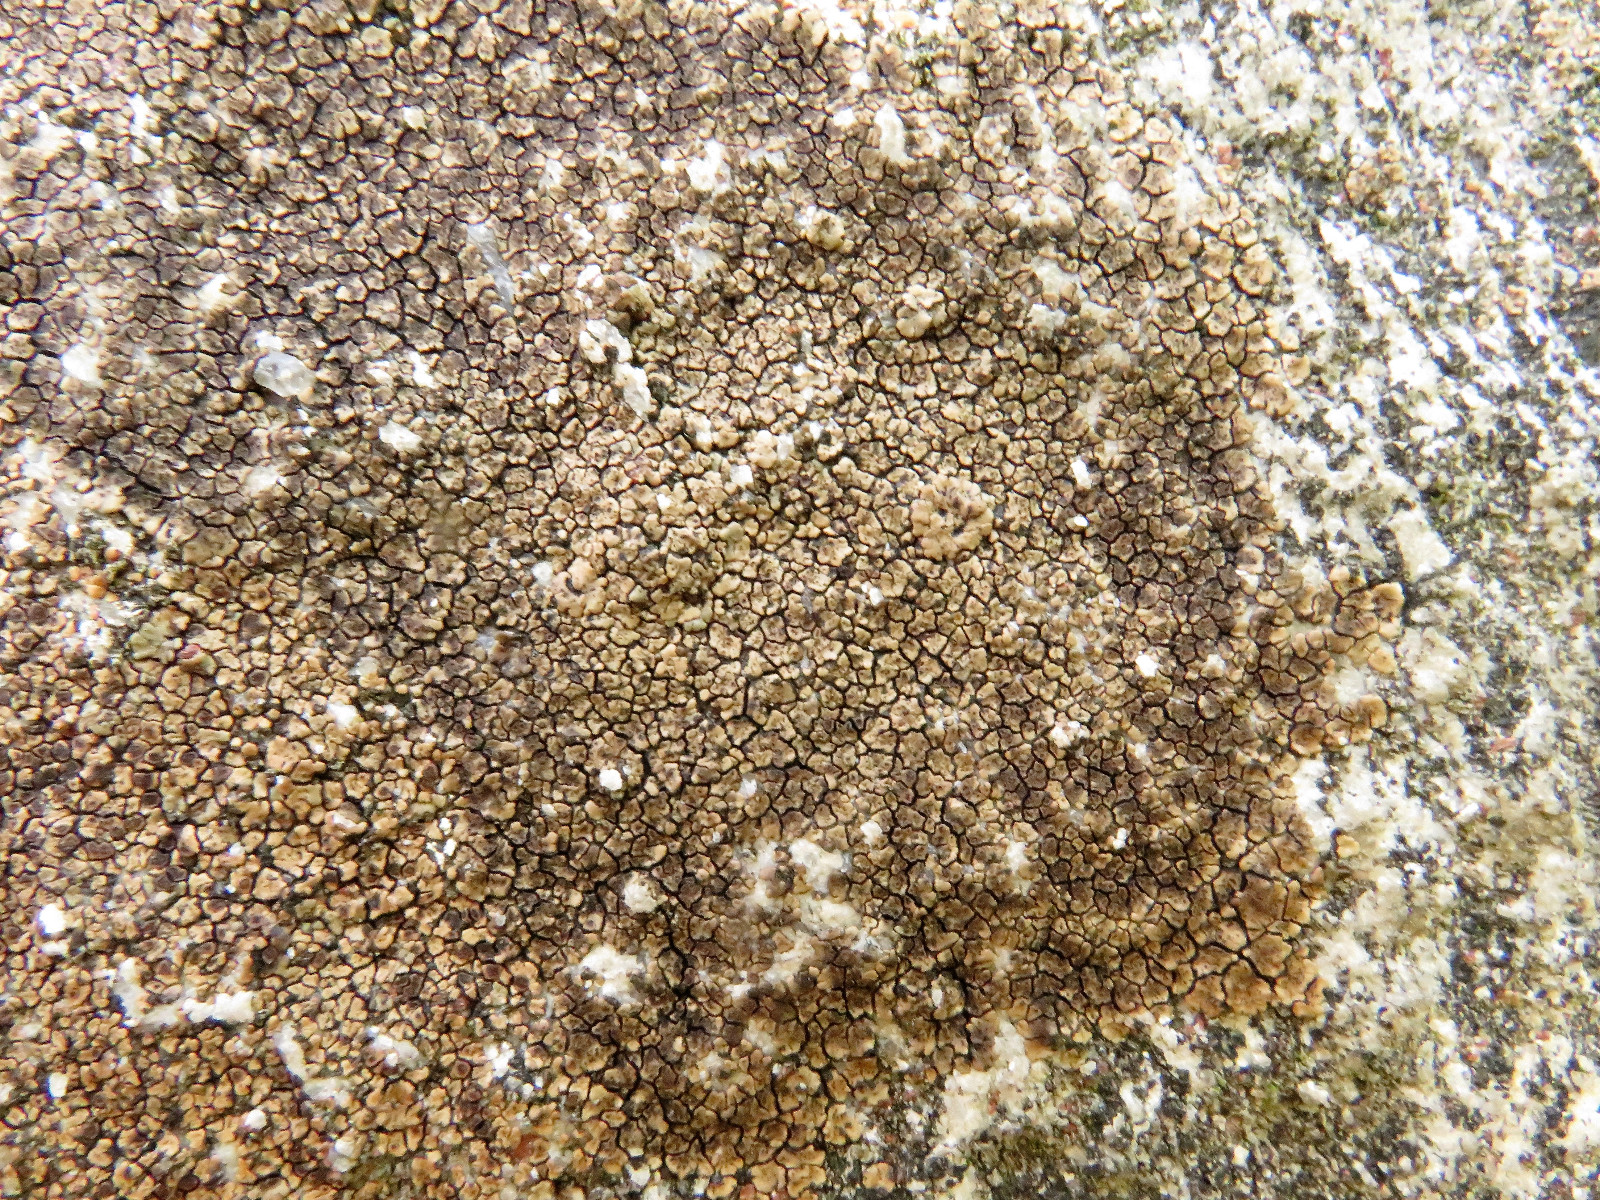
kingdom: Fungi
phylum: Ascomycota
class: Lecanoromycetes
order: Acarosporales
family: Acarosporaceae
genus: Acarospora
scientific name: Acarospora fuscata
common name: brun småsporelav
